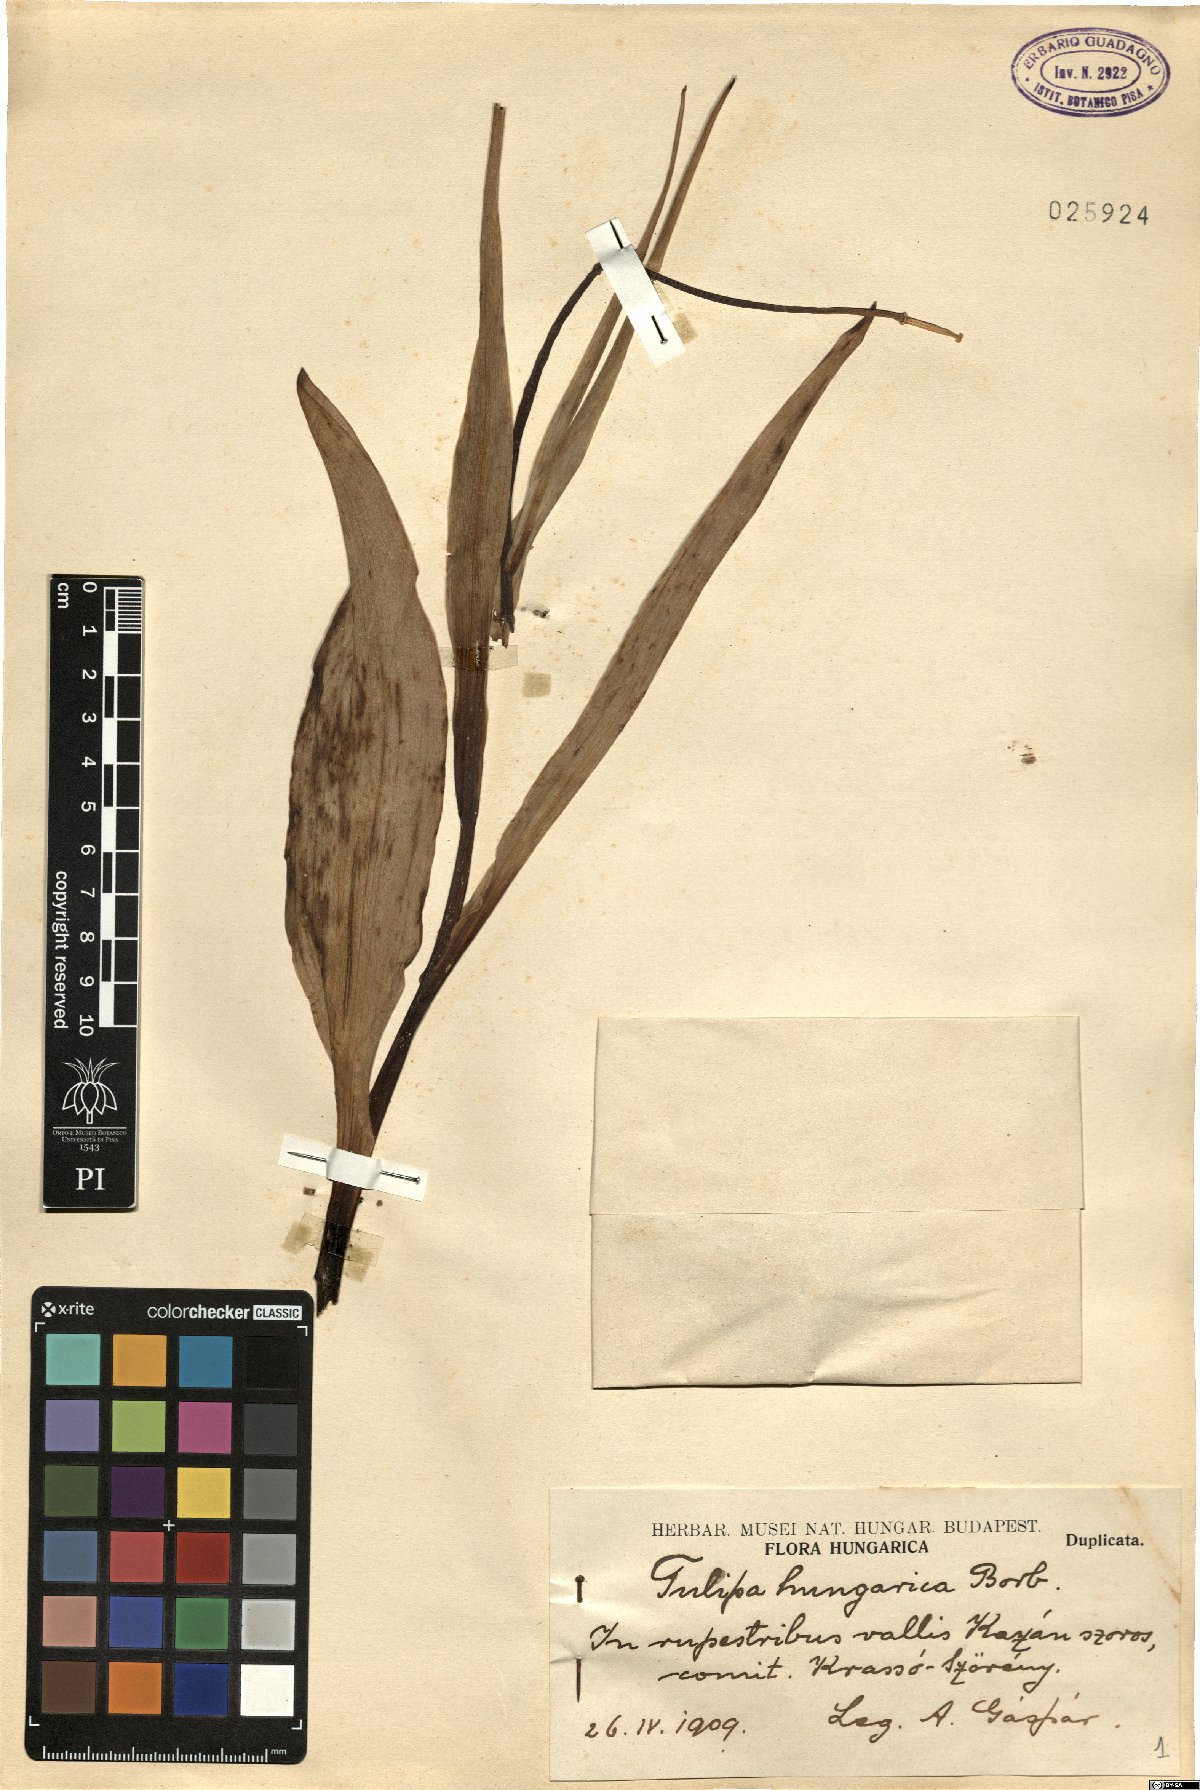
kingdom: Plantae
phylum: Tracheophyta
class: Liliopsida
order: Liliales
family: Liliaceae
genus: Tulipa
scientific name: Tulipa hungarica
